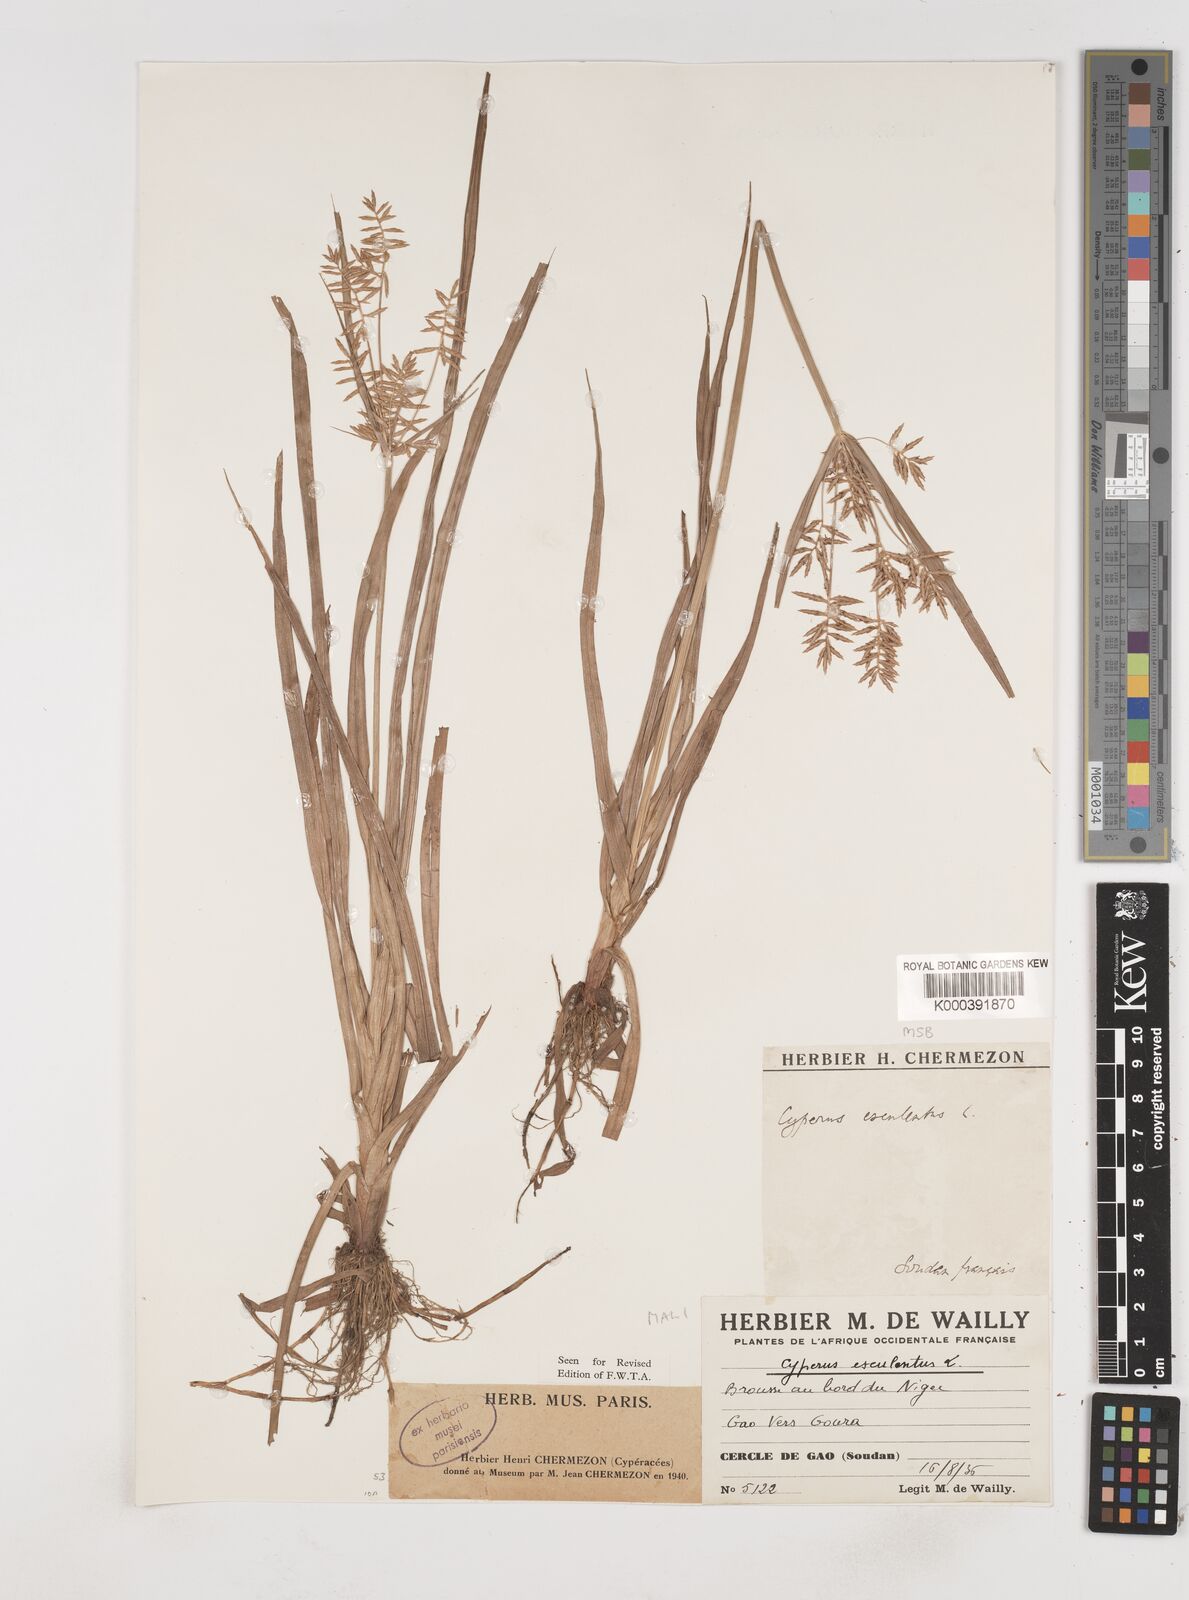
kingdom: Plantae
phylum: Tracheophyta
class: Liliopsida
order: Poales
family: Cyperaceae
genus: Cyperus
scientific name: Cyperus esculentus
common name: Yellow nutsedge
